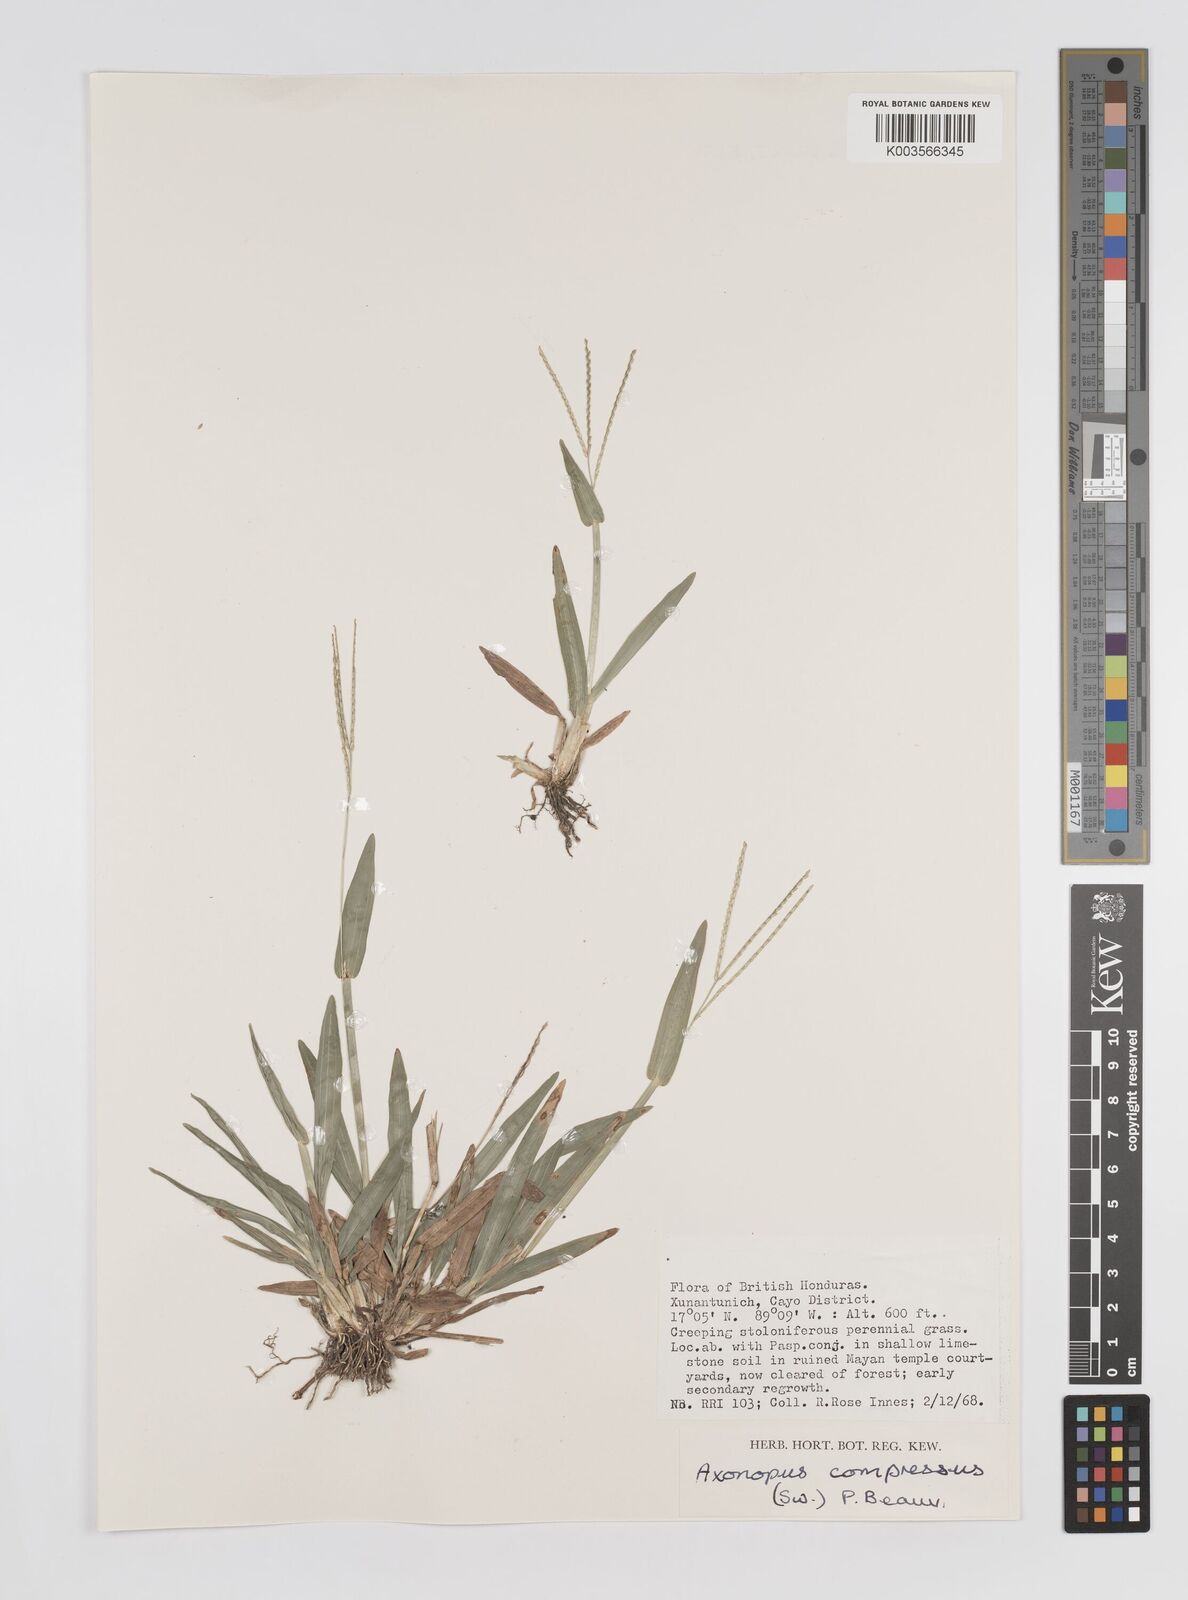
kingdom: Plantae
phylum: Tracheophyta
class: Liliopsida
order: Poales
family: Poaceae
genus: Axonopus
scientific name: Axonopus compressus
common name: American carpet grass
